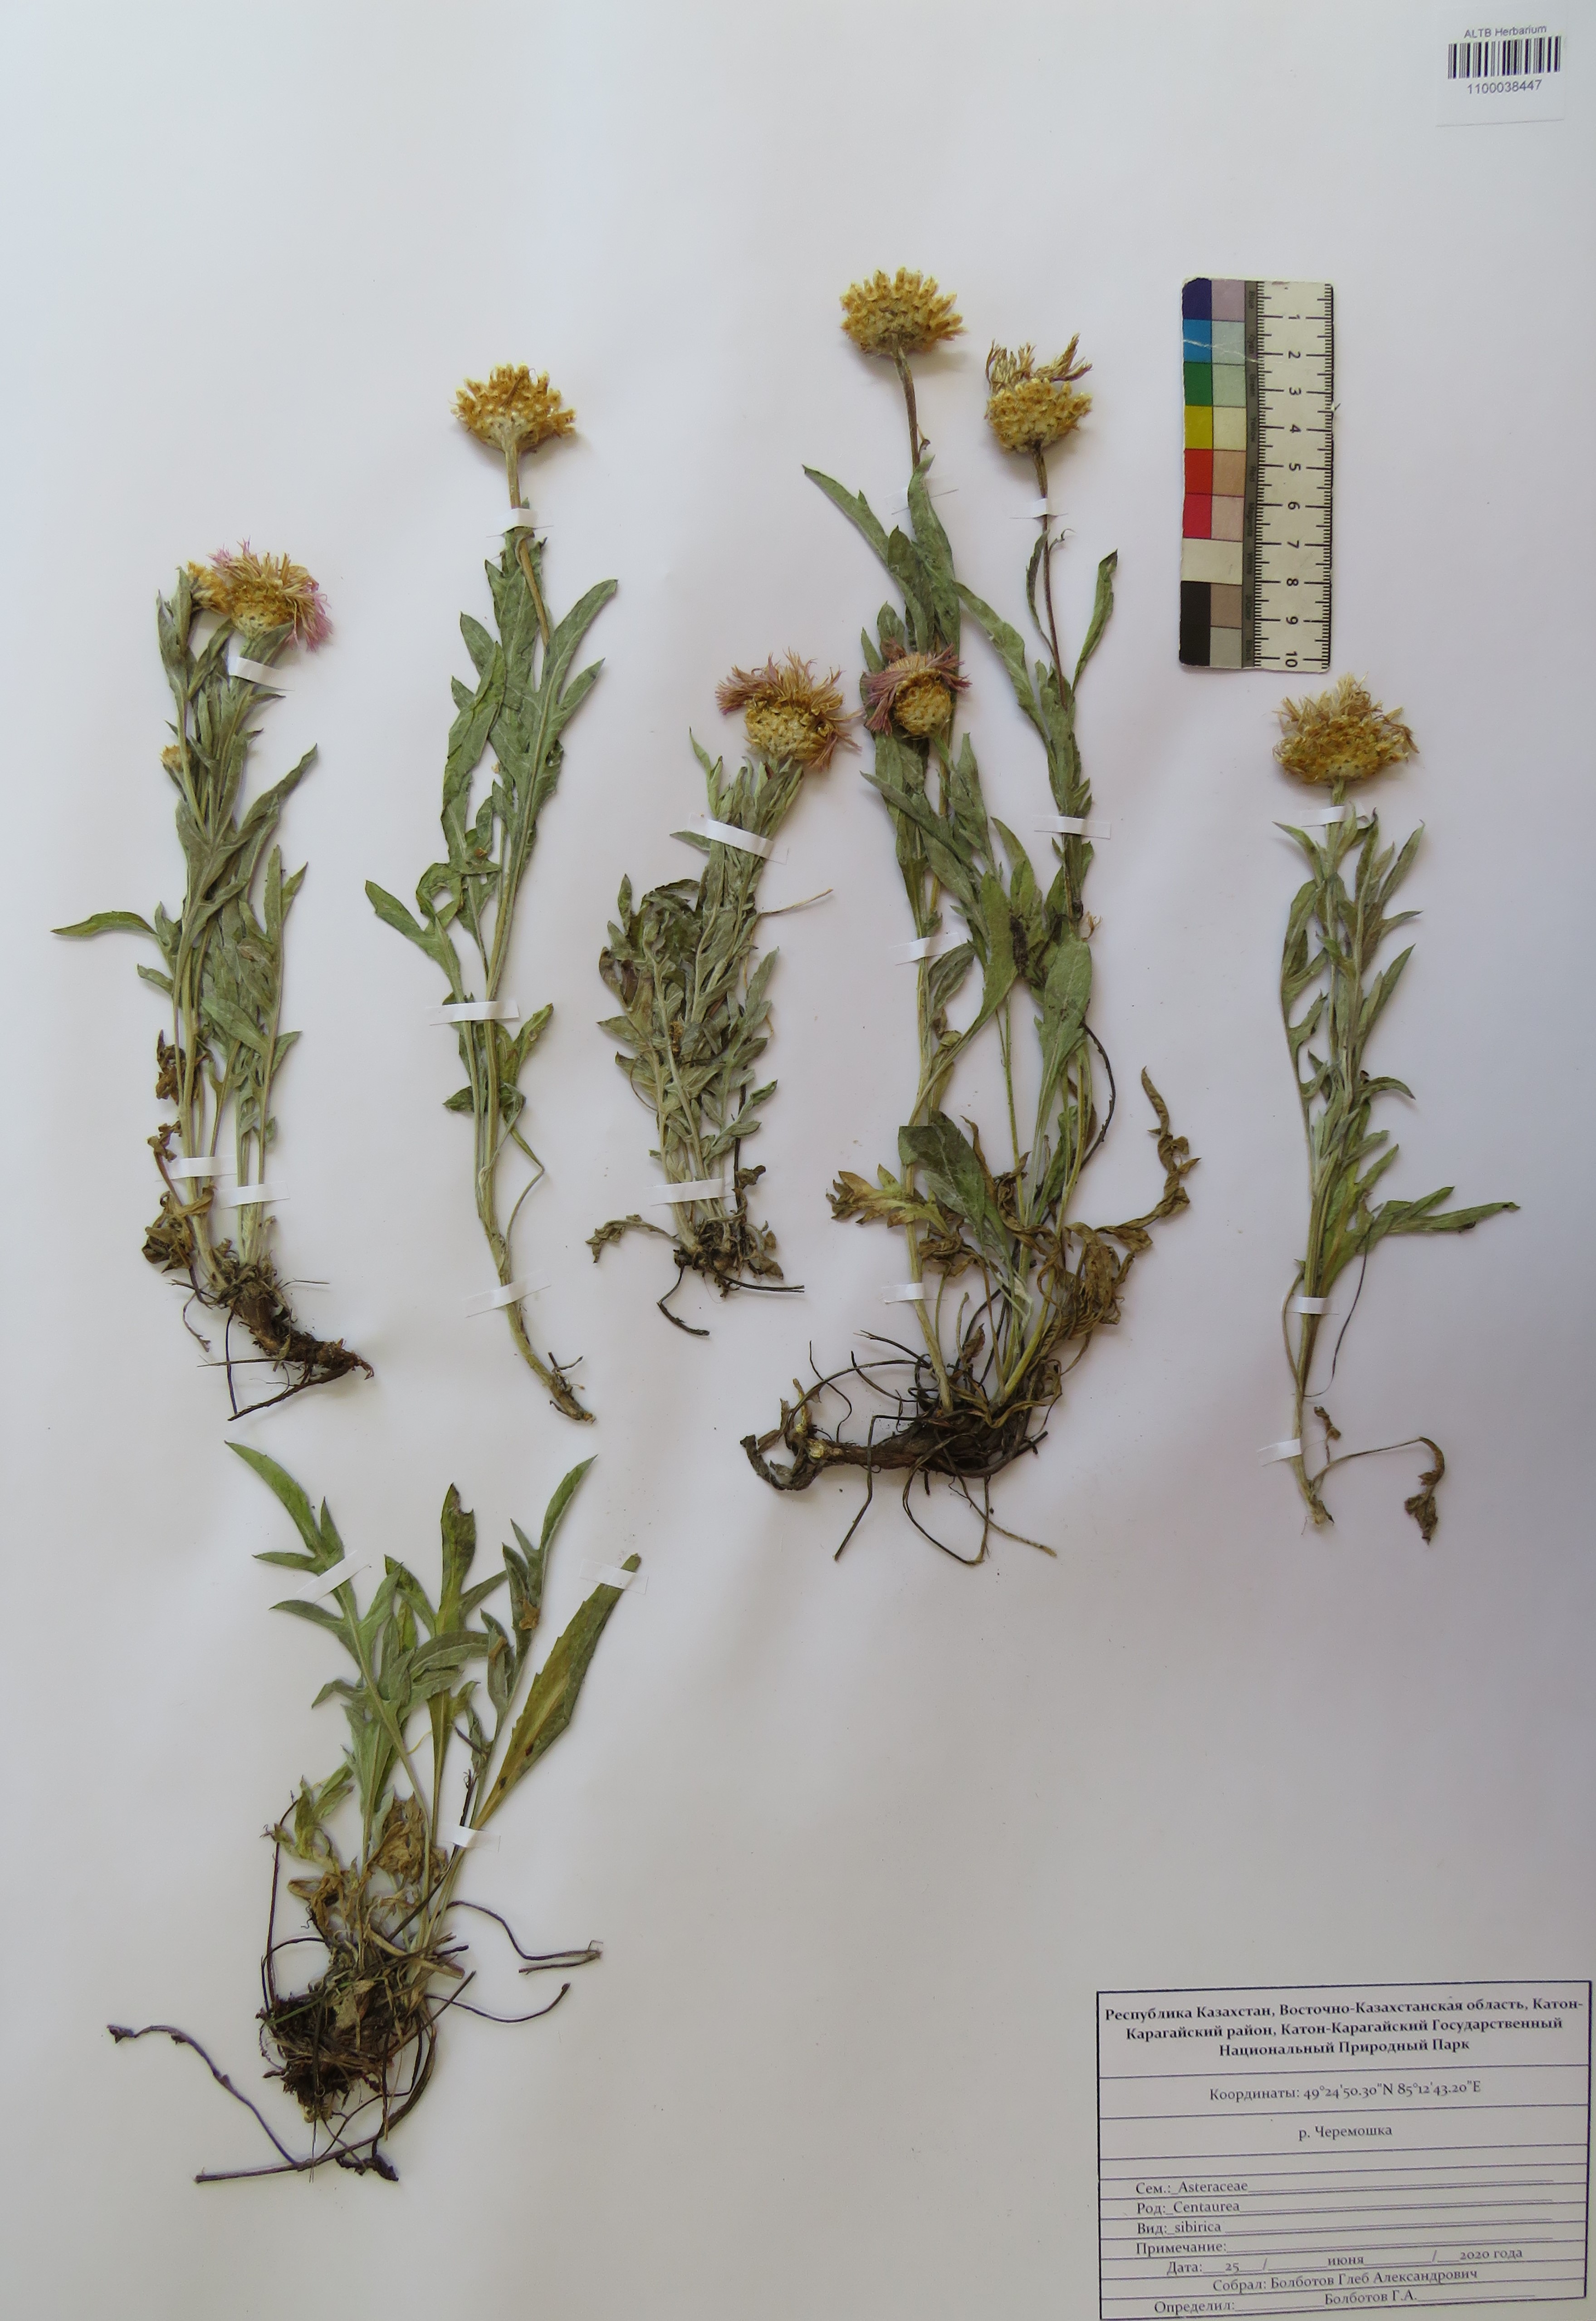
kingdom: Plantae
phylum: Tracheophyta
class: Magnoliopsida
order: Asterales
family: Asteraceae
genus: Psephellus
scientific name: Psephellus sibiricus
